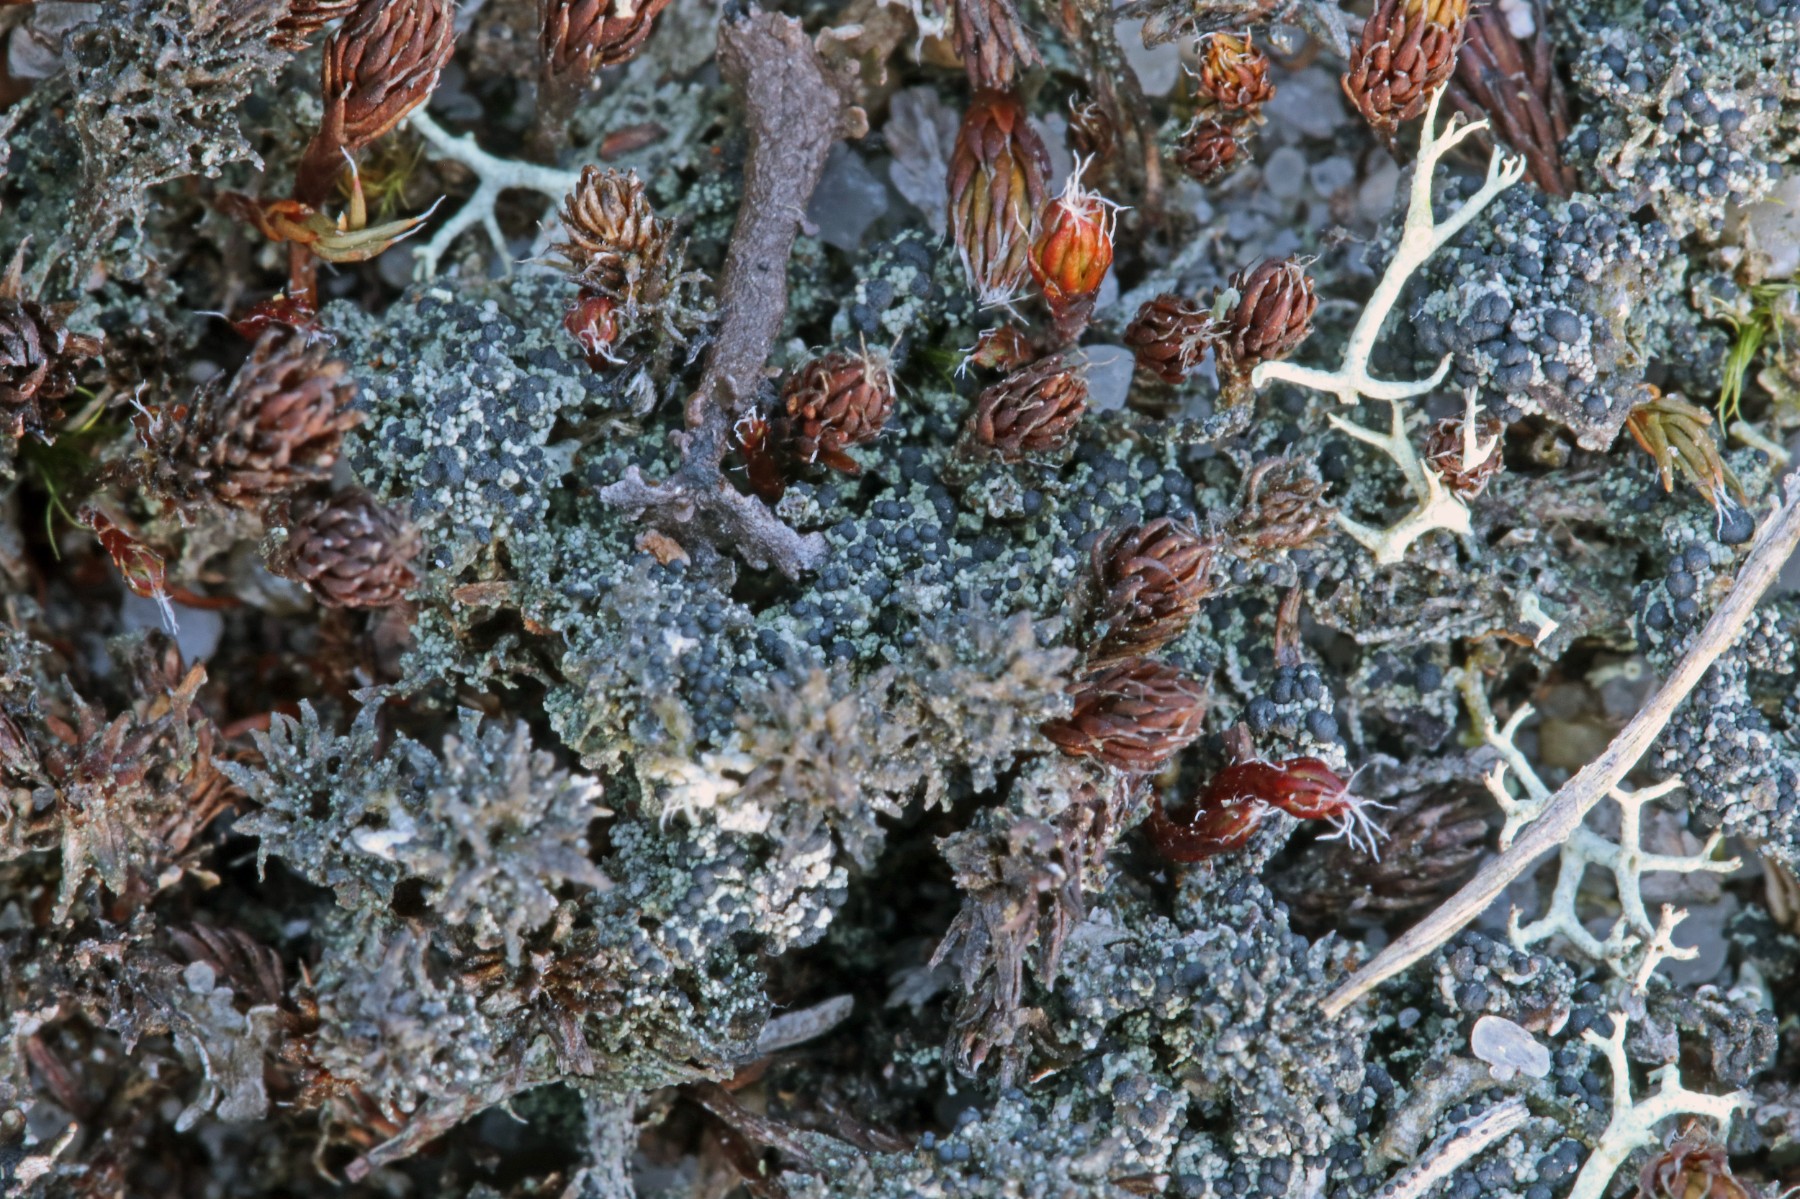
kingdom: Fungi
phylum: Ascomycota
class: Lecanoromycetes
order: Lecanorales
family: Byssolomataceae
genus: Micarea
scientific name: Micarea lignaria
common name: tørve-knaplav
